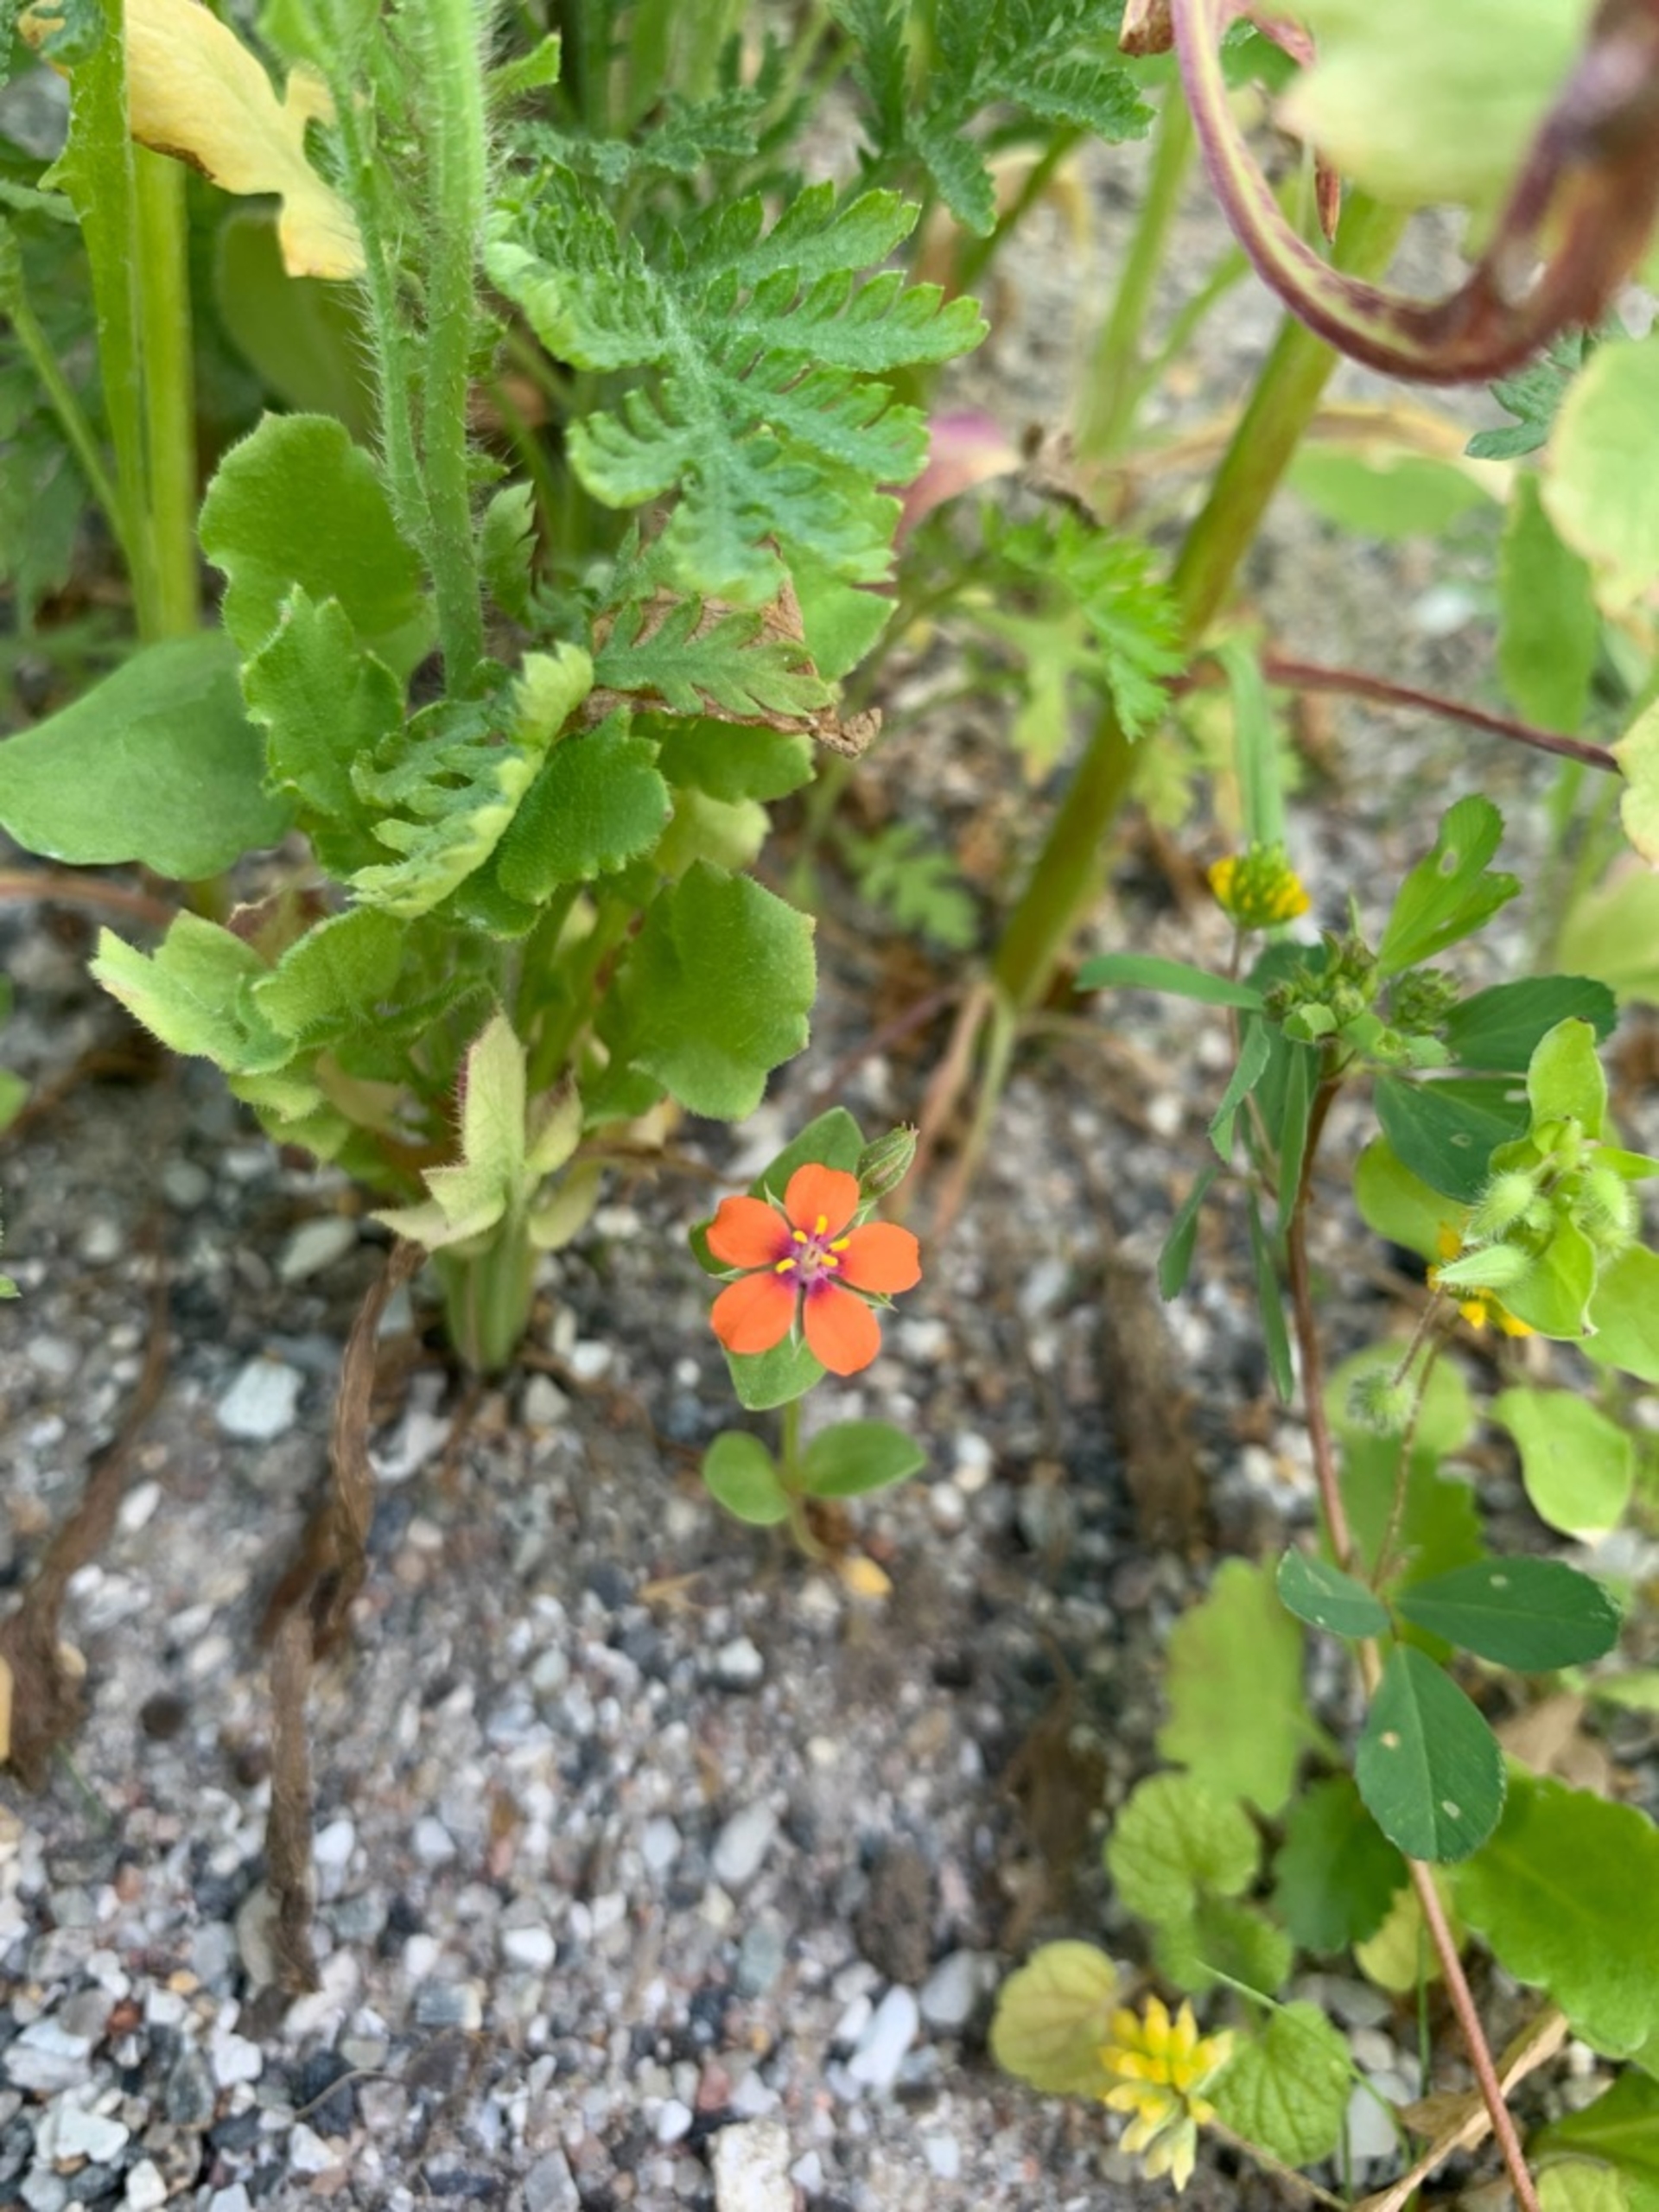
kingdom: Plantae
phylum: Tracheophyta
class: Magnoliopsida
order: Ericales
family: Primulaceae
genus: Lysimachia
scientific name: Lysimachia arvensis
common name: Rød arve
